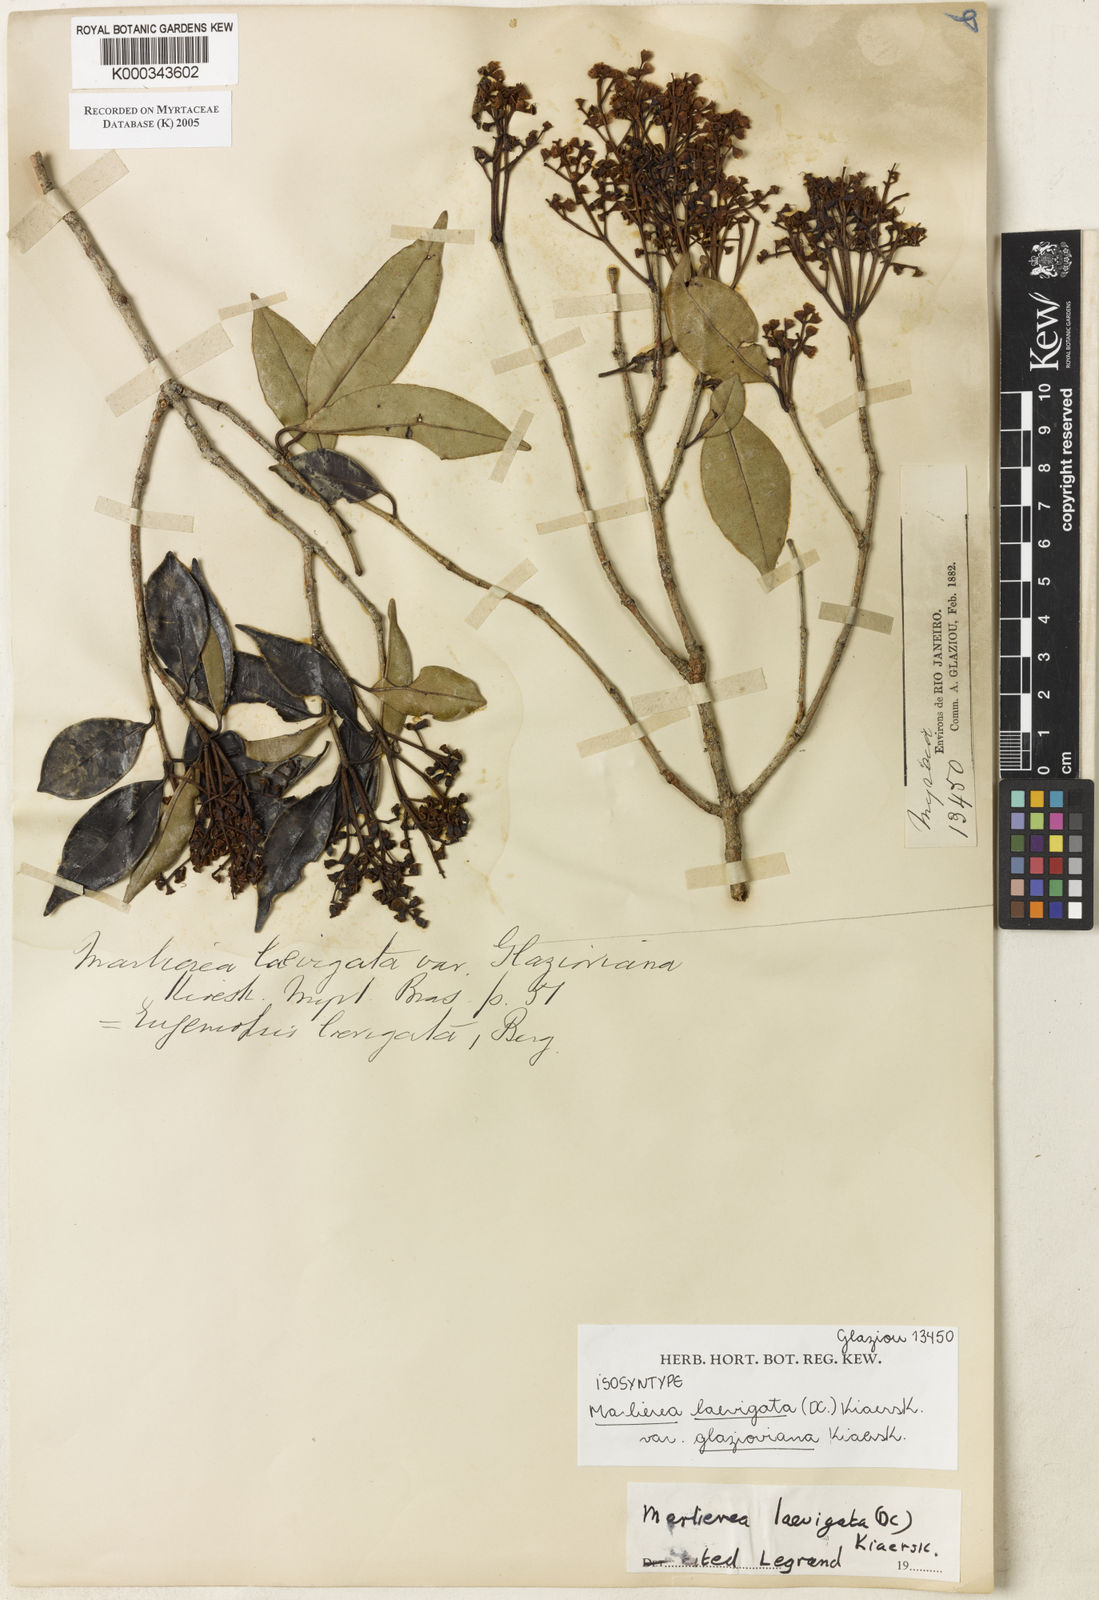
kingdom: Plantae
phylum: Tracheophyta
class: Magnoliopsida
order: Myrtales
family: Myrtaceae
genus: Myrcia
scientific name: Myrcia multipunctata
